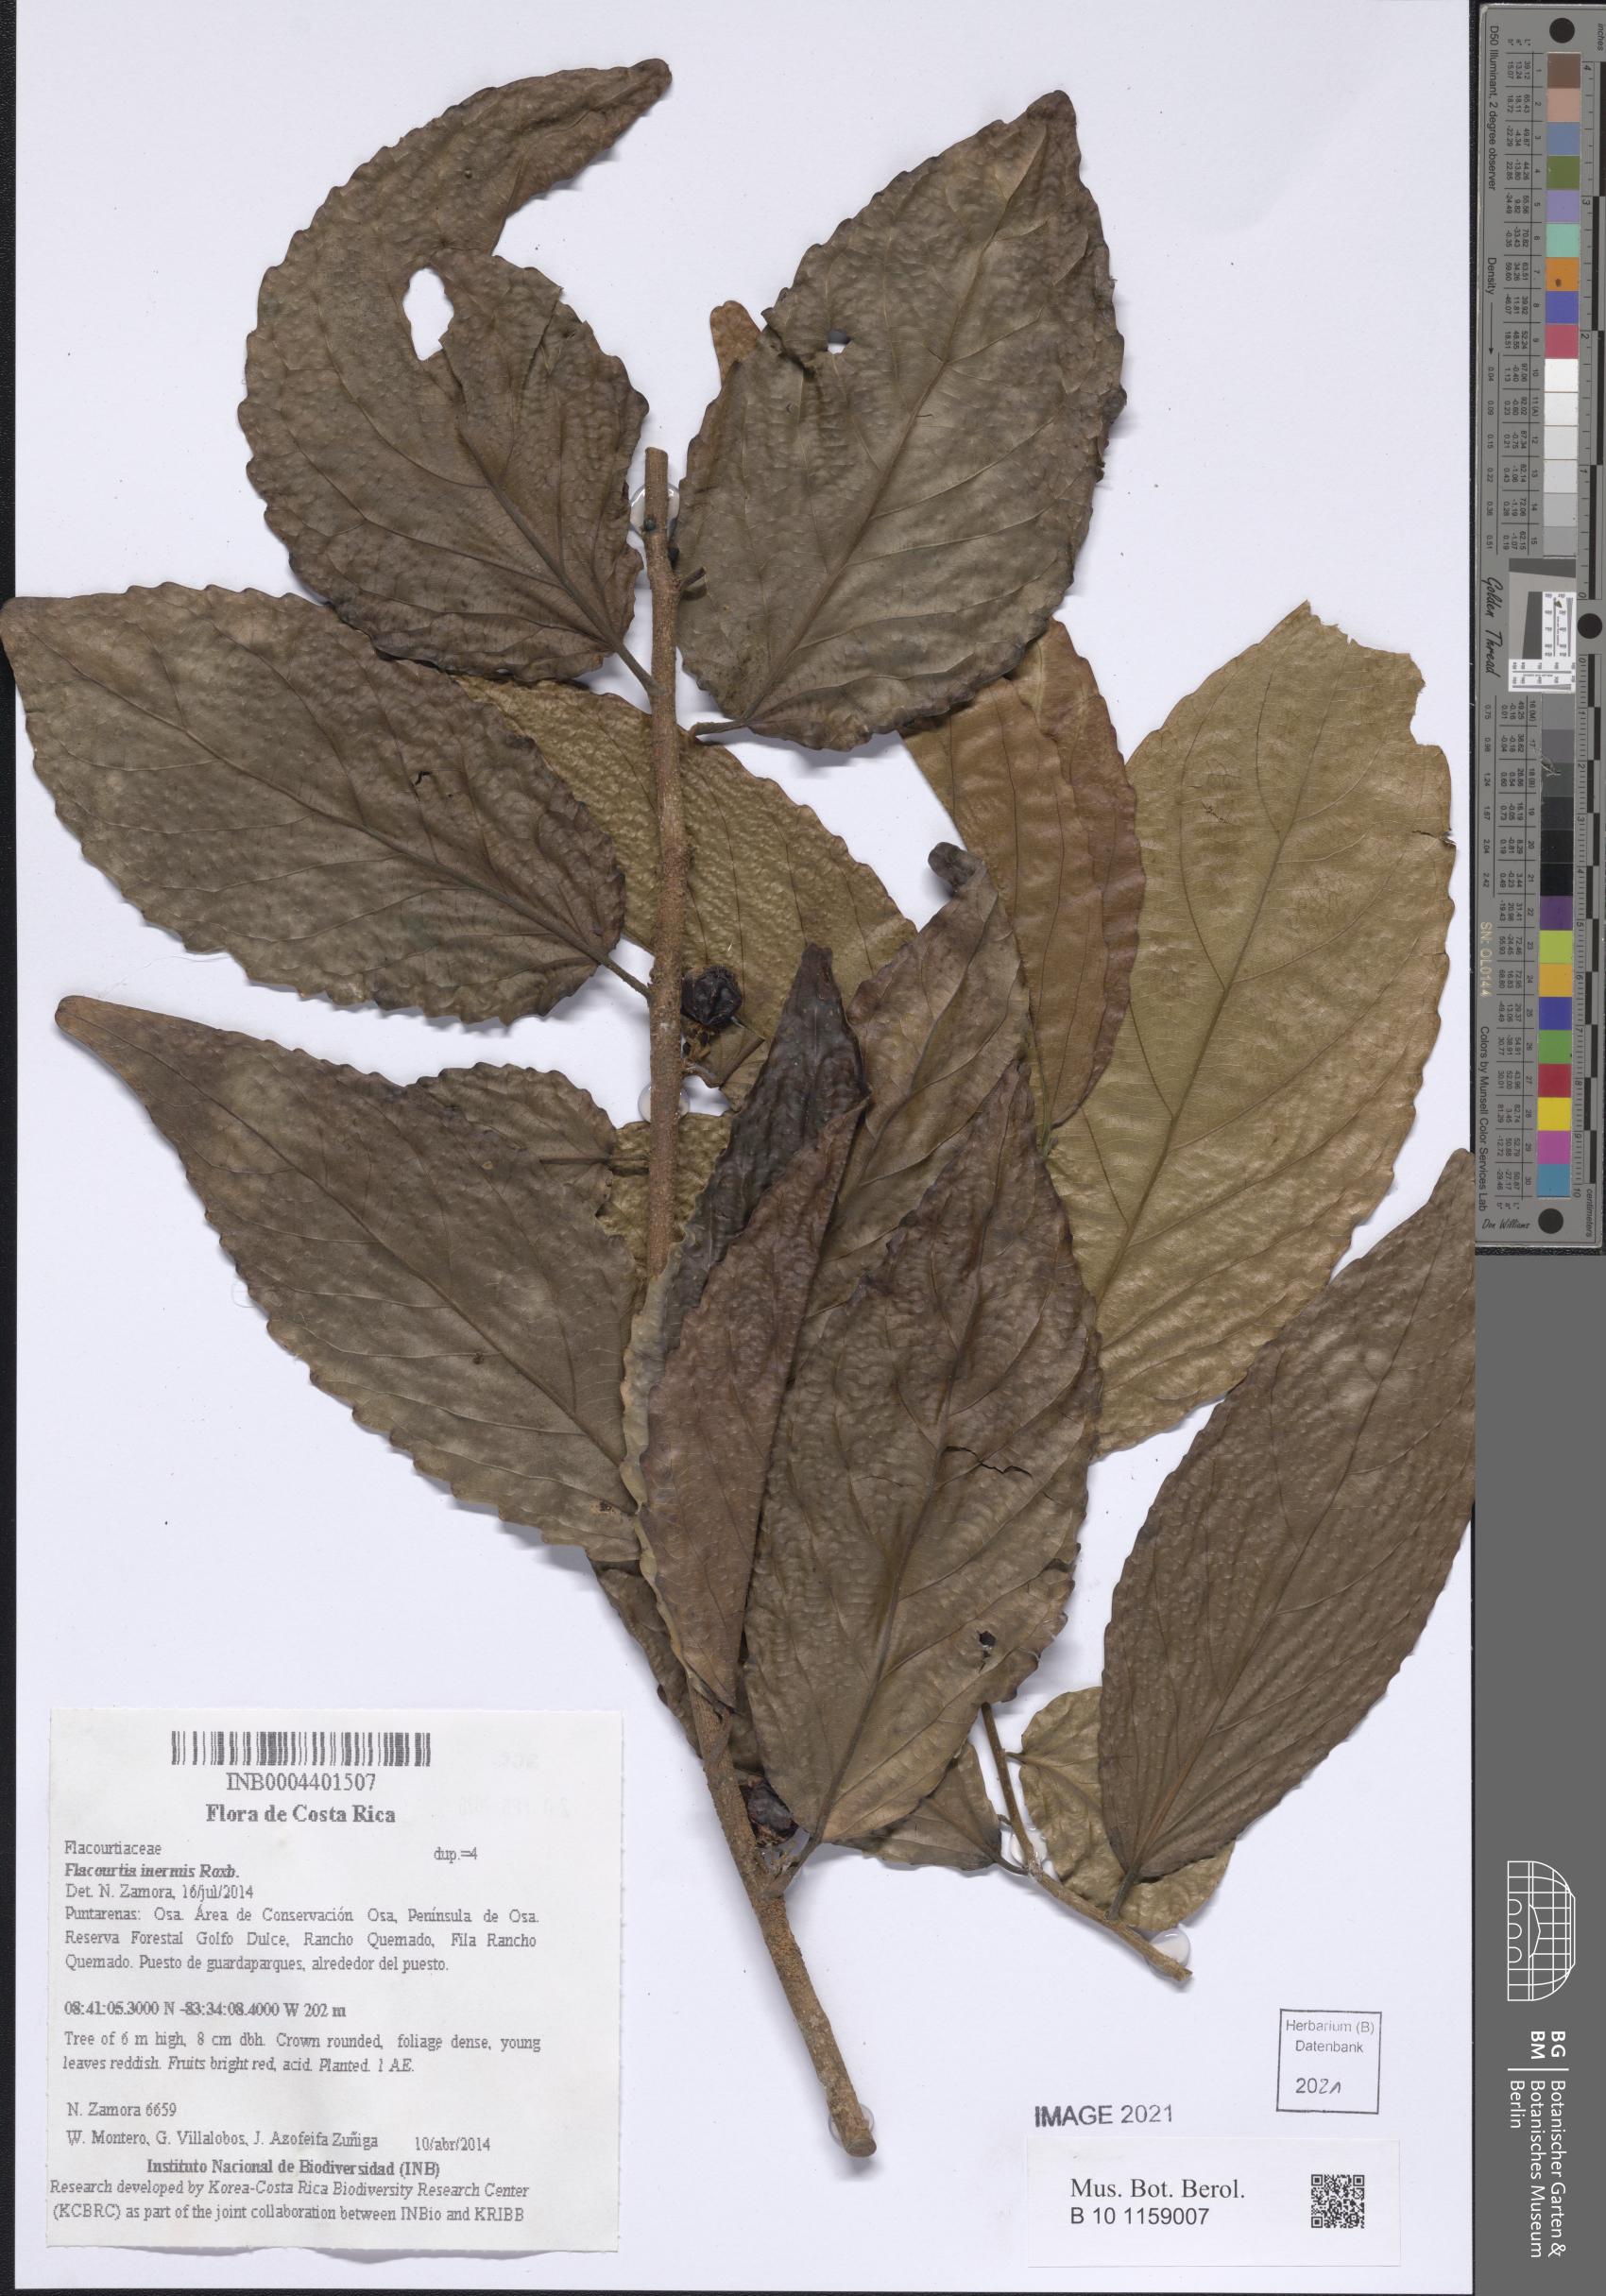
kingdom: Plantae
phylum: Tracheophyta
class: Magnoliopsida
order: Malpighiales
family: Salicaceae
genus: Flacourtia
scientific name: Flacourtia inermis
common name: Plum-of-martinique
